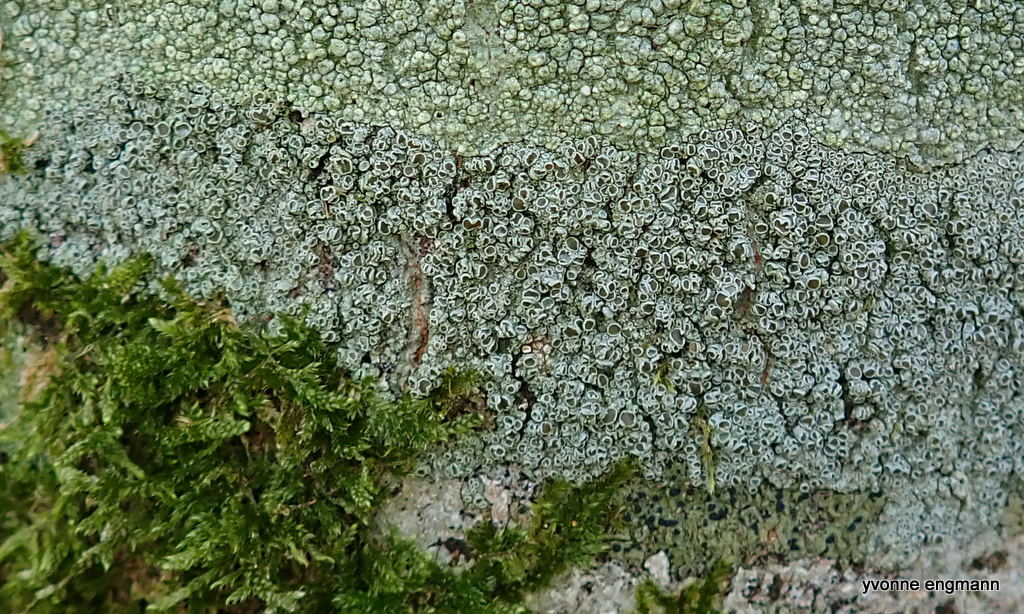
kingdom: Fungi
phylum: Ascomycota
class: Lecanoromycetes
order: Lecanorales
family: Lecanoraceae
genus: Lecanora
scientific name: Lecanora chlarotera
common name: brun kantskivelav
